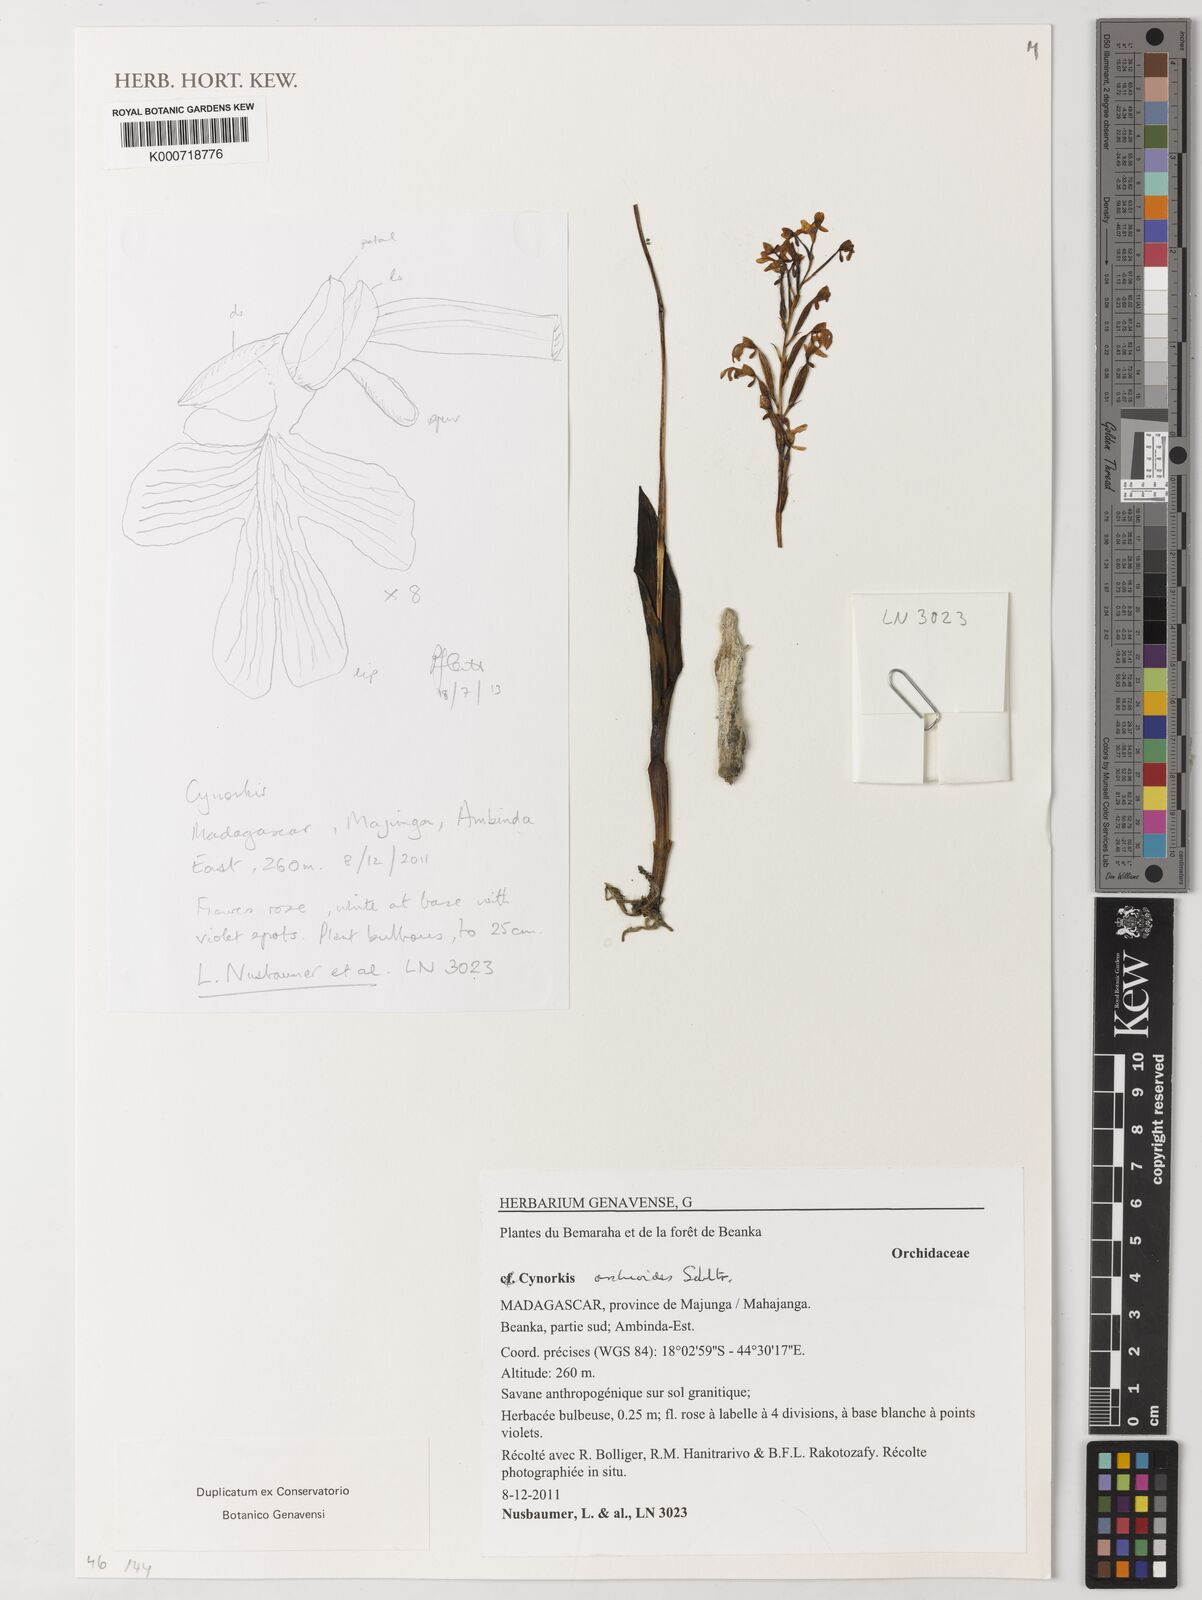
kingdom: Plantae
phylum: Tracheophyta
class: Liliopsida
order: Asparagales
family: Orchidaceae
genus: Cynorkis
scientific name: Cynorkis orchioides
